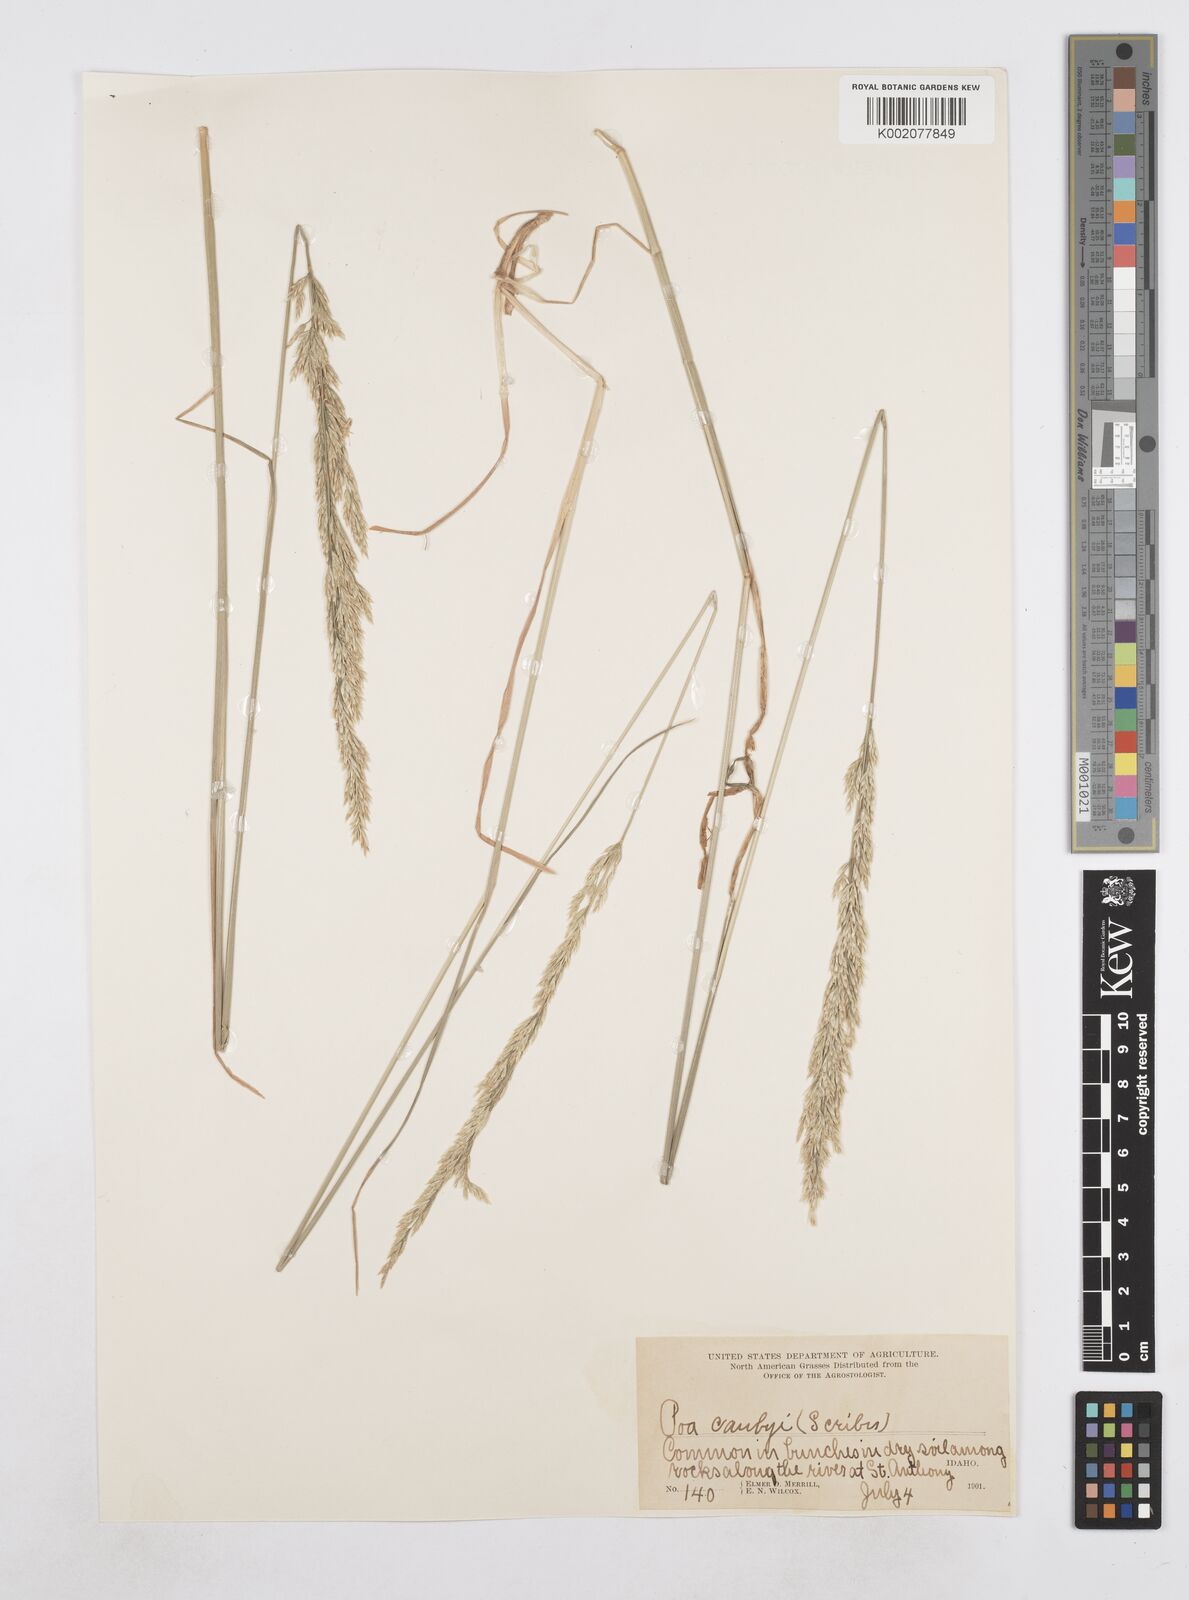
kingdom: Plantae
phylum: Tracheophyta
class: Liliopsida
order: Poales
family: Poaceae
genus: Poa
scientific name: Poa secunda
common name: Sandberg bluegrass
